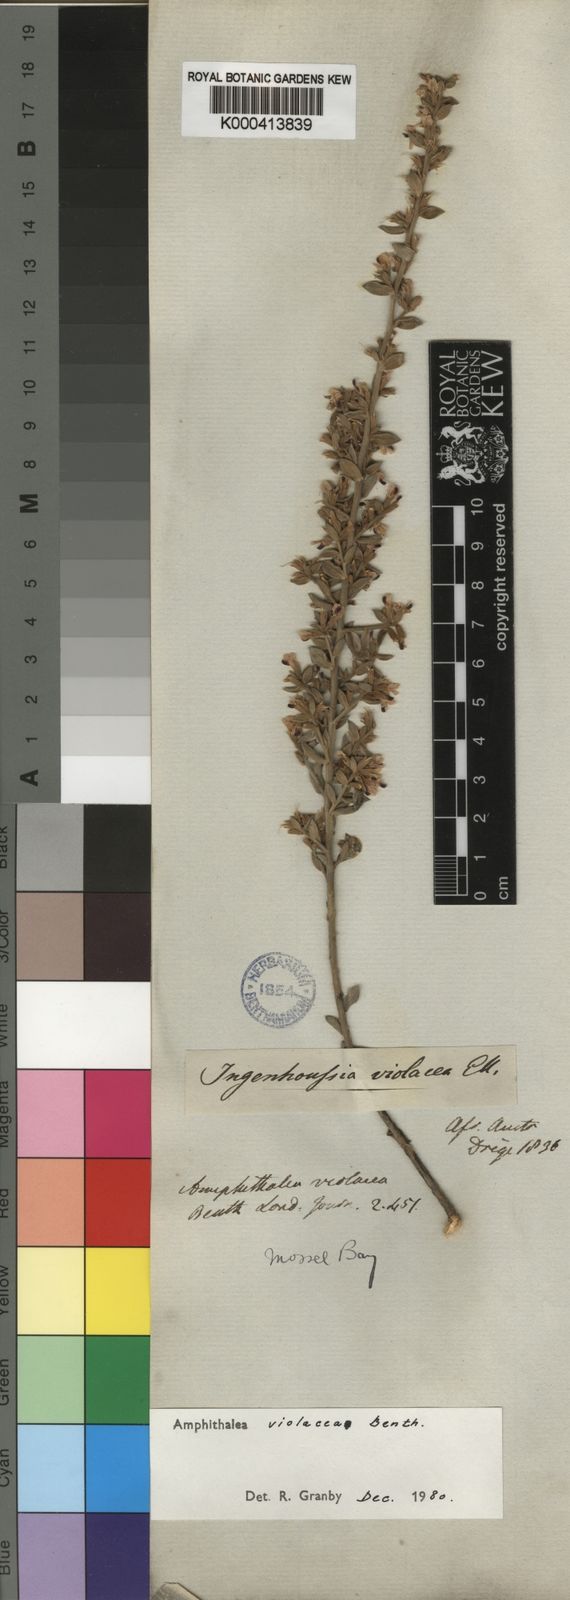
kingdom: Plantae
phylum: Tracheophyta
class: Magnoliopsida
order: Fabales
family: Fabaceae
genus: Amphithalea
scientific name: Amphithalea violacea
